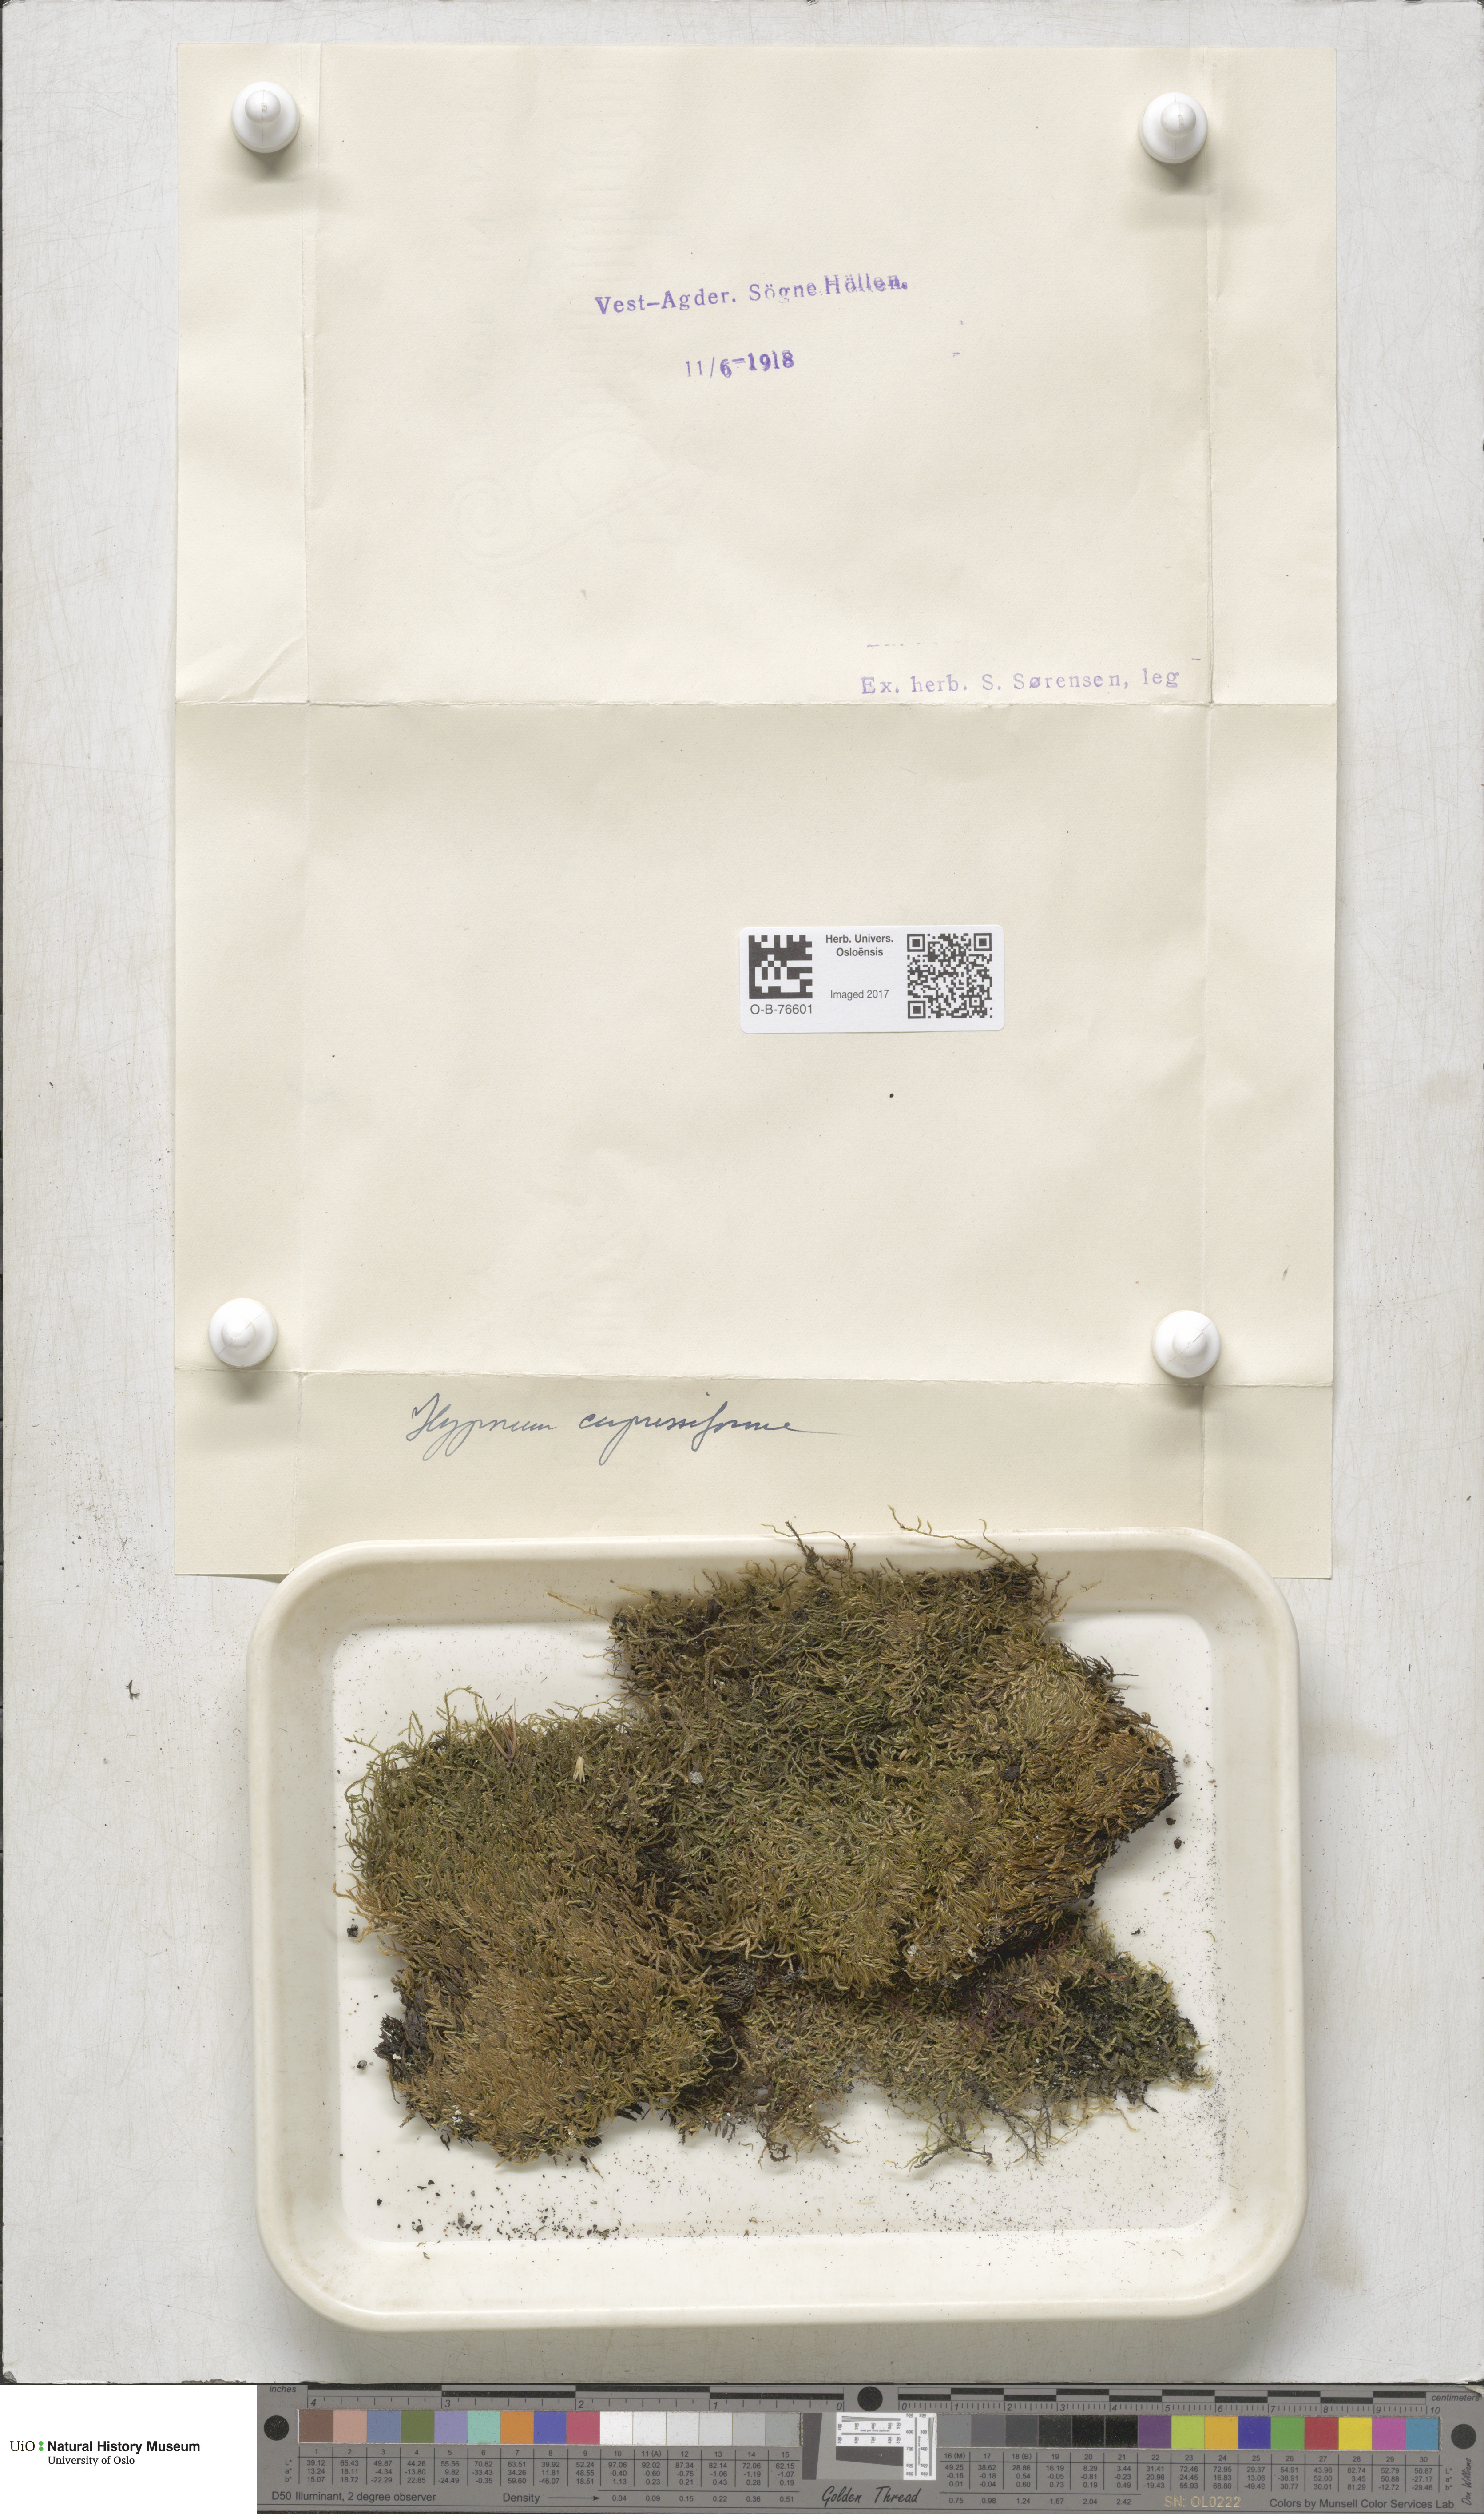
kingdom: Plantae
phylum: Bryophyta
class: Bryopsida
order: Hypnales
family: Hypnaceae
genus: Hypnum
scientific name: Hypnum cupressiforme
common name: Cypress-leaved plait-moss
